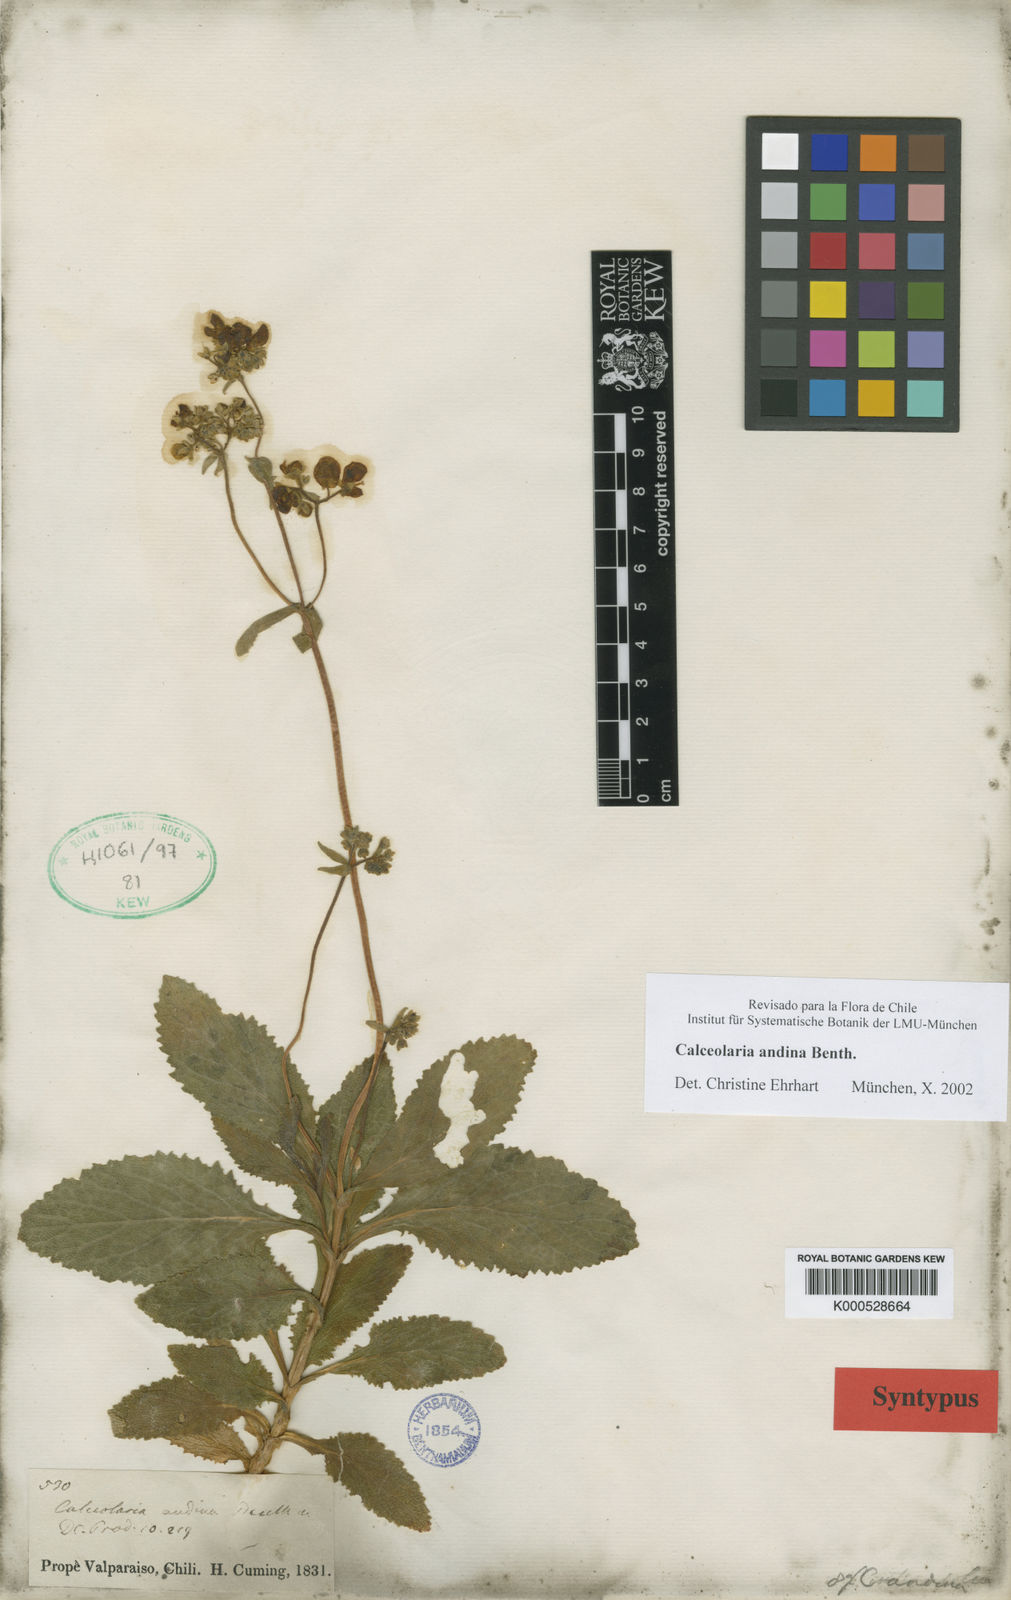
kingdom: Plantae
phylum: Tracheophyta
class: Magnoliopsida
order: Lamiales
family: Calceolariaceae
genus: Calceolaria
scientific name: Calceolaria dentifolia
